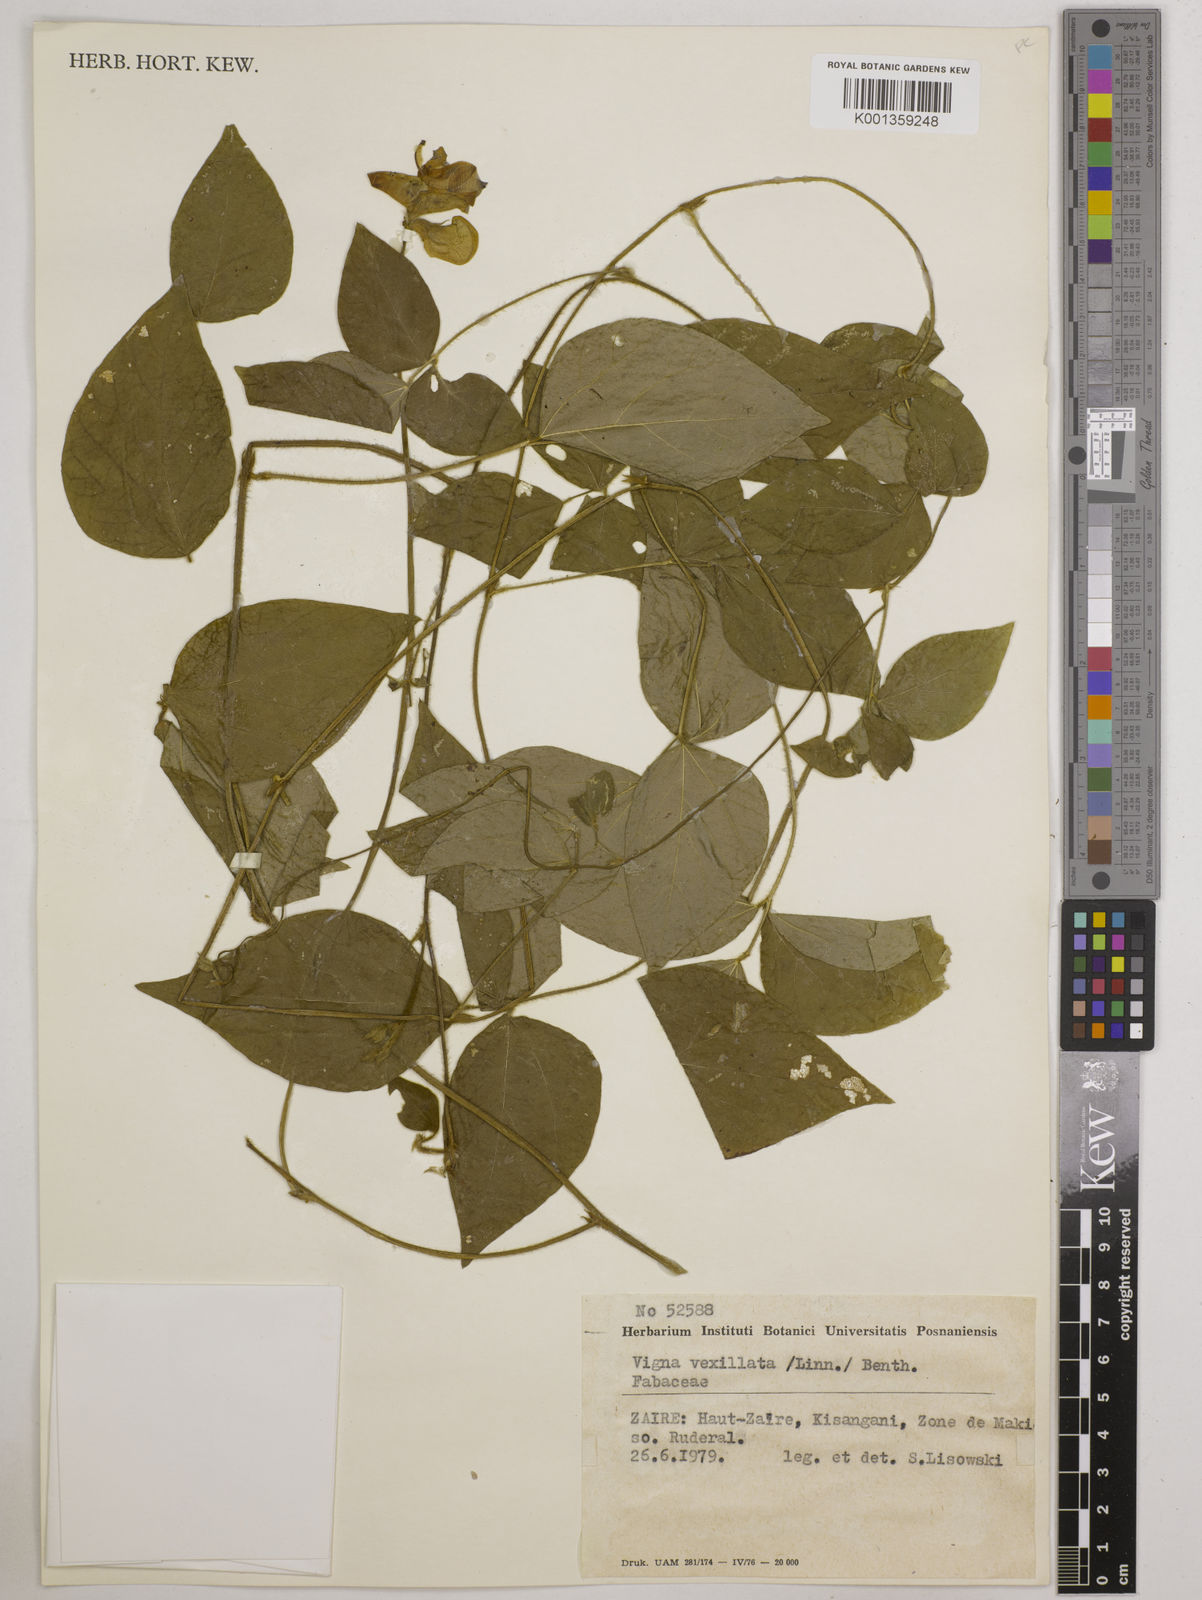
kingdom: Plantae
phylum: Tracheophyta
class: Magnoliopsida
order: Fabales
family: Fabaceae
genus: Vigna
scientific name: Vigna vexillata
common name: Zombi pea
